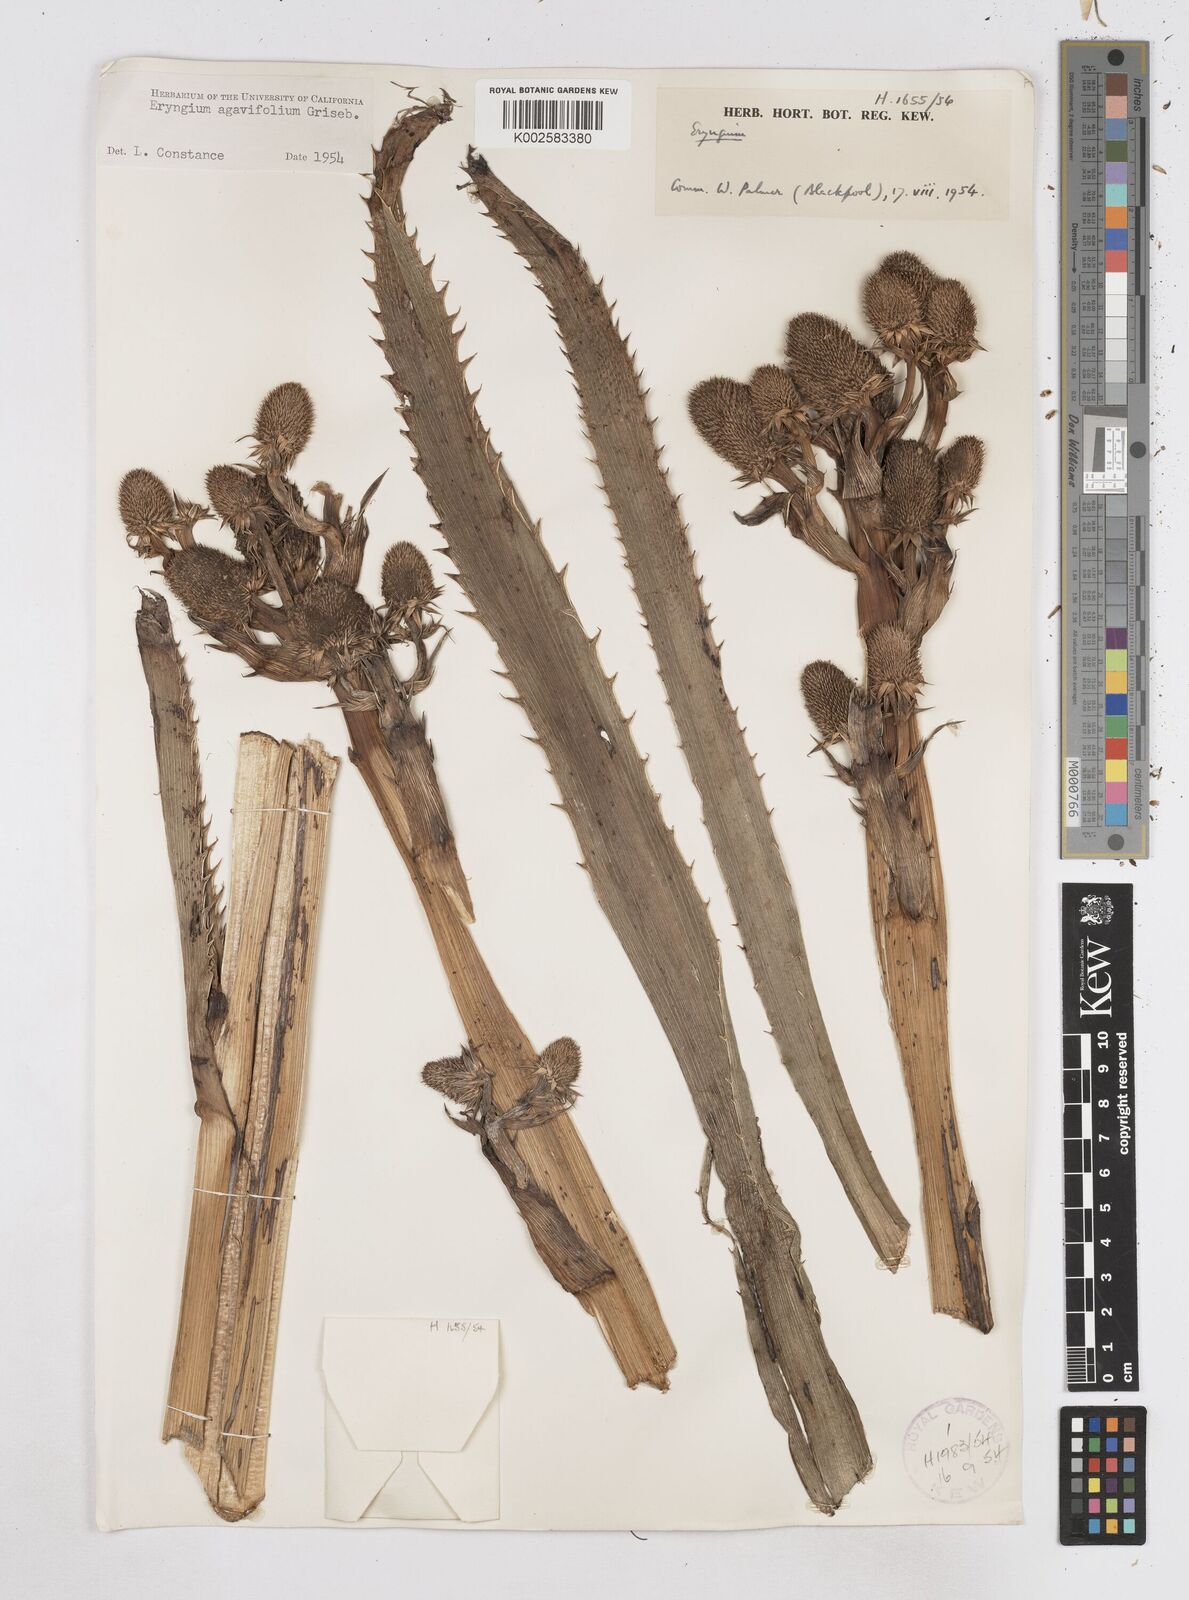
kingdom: Plantae
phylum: Tracheophyta
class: Magnoliopsida
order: Apiales
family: Apiaceae
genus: Eryngium
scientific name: Eryngium agavifolium
